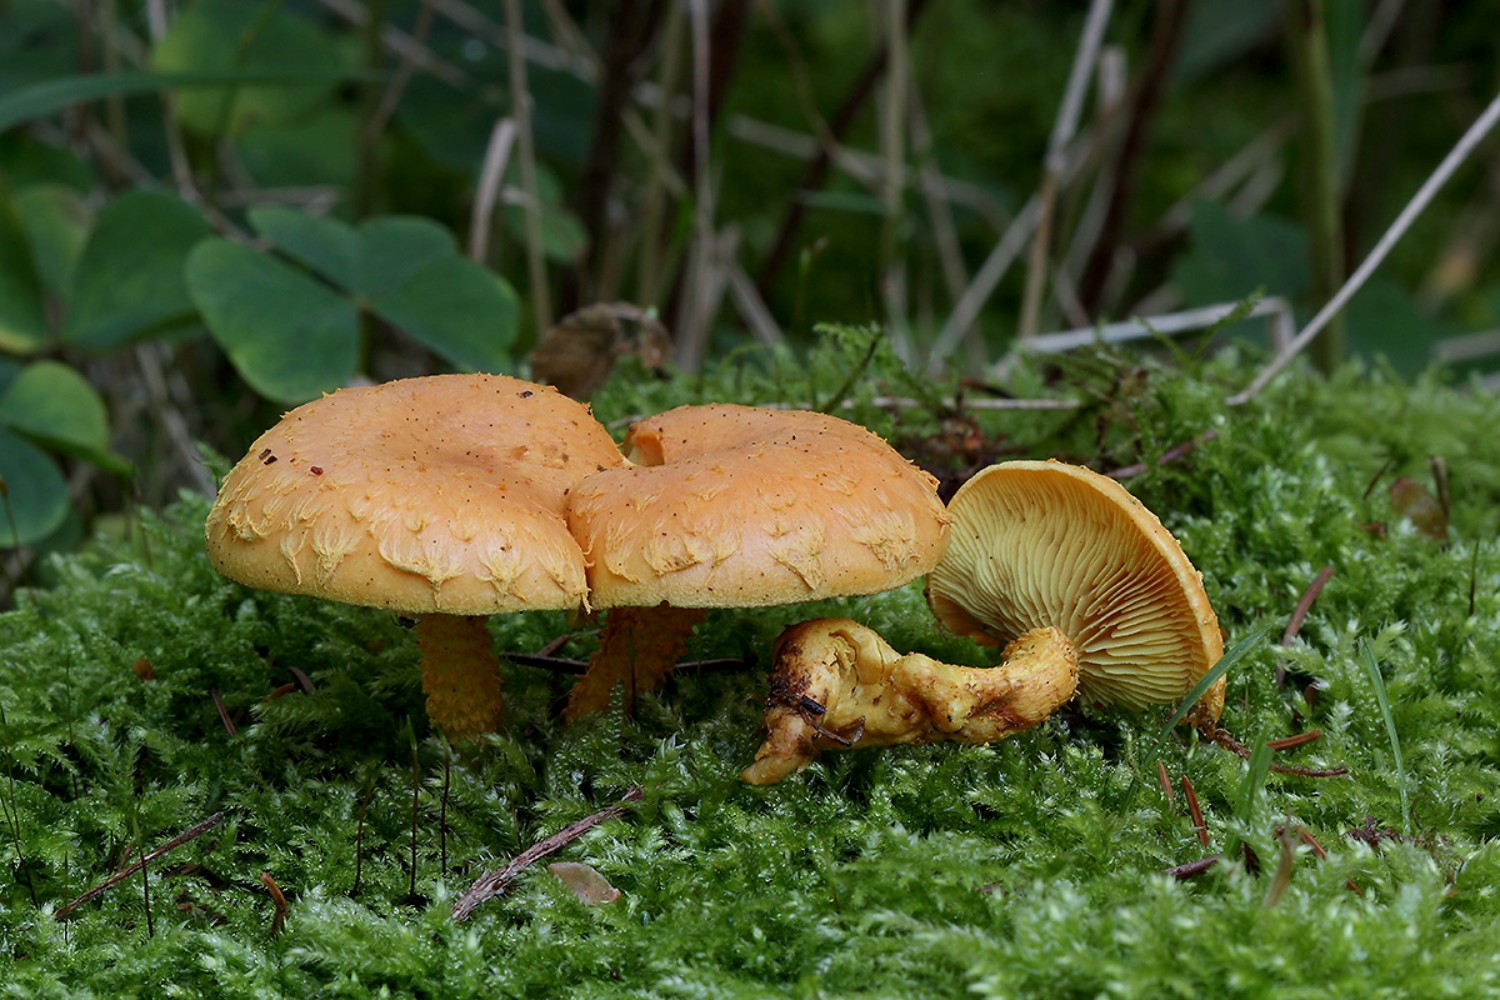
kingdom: Fungi
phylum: Basidiomycota
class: Agaricomycetes
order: Agaricales
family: Strophariaceae
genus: Pholiota
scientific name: Pholiota flammans
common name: flamme-skælhat
